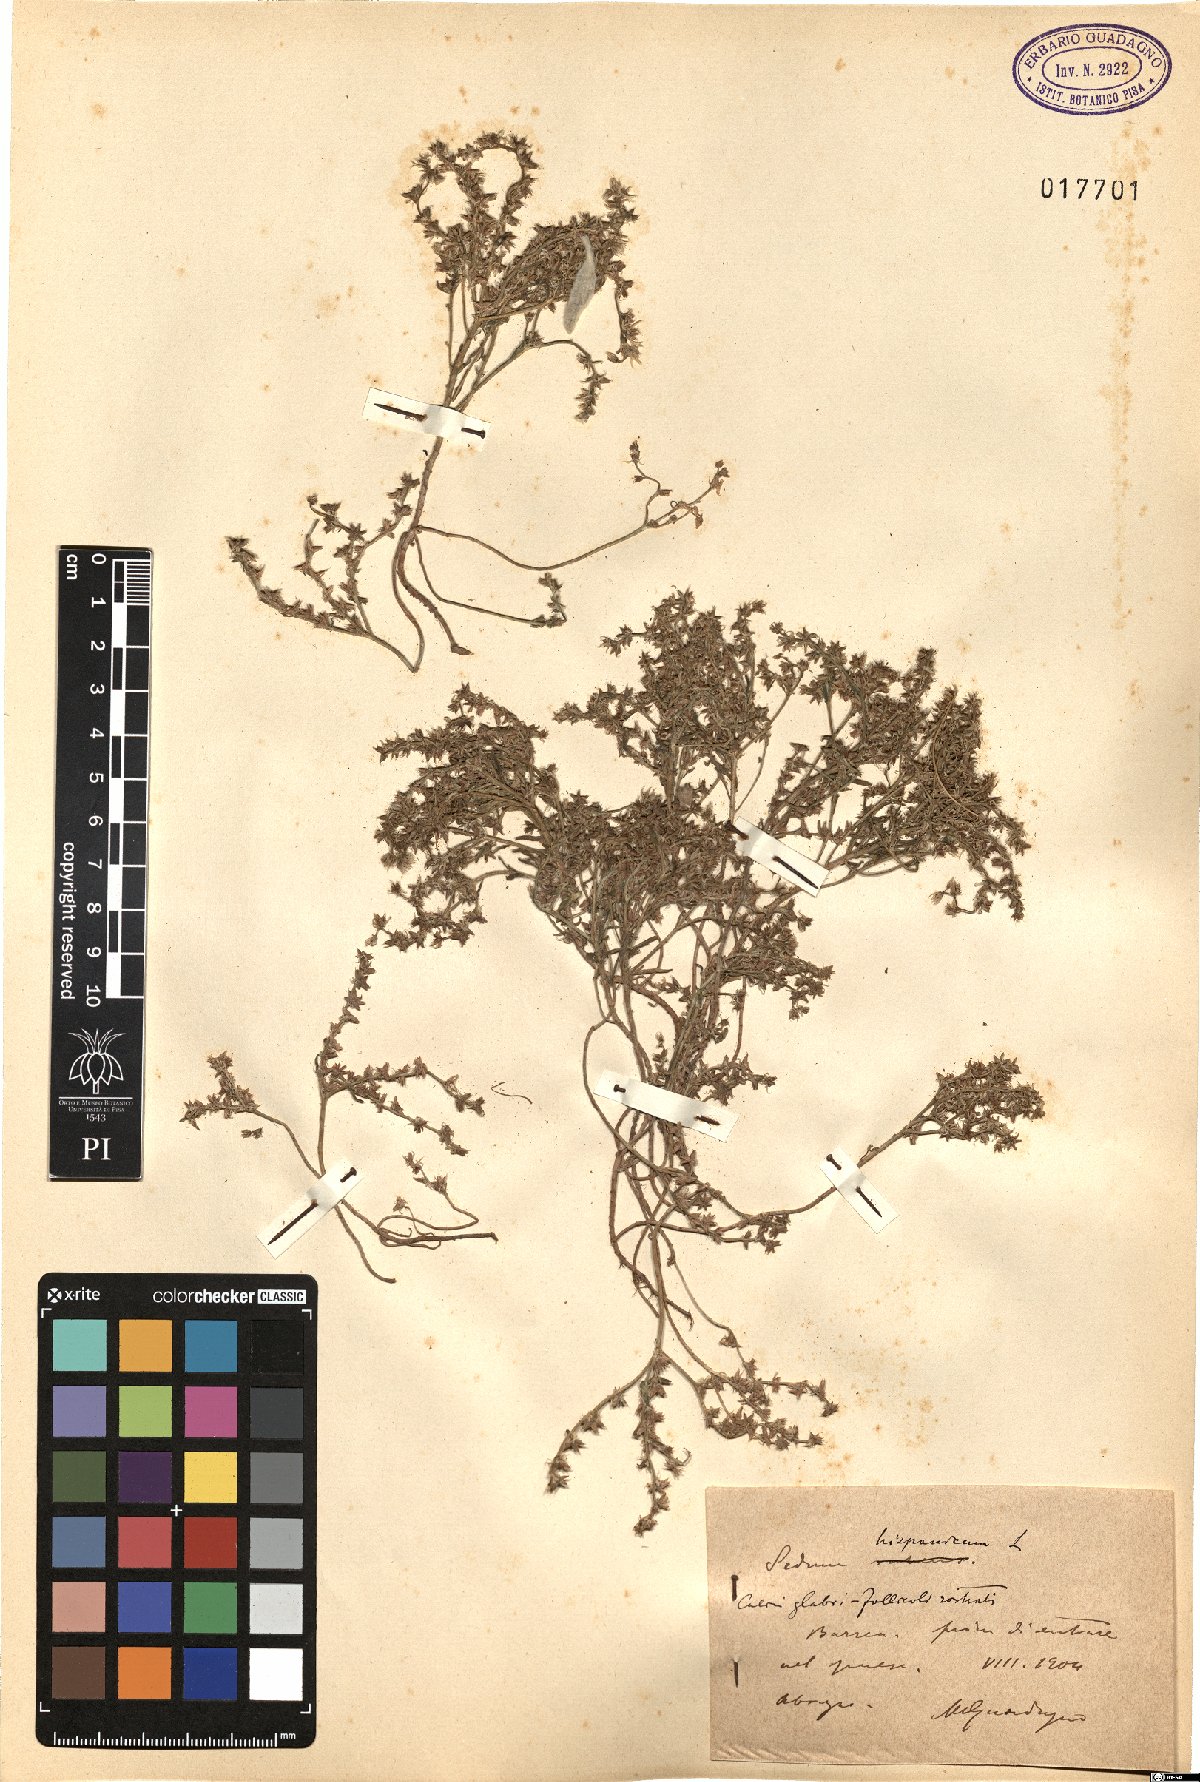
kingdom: Plantae
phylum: Tracheophyta
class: Magnoliopsida
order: Saxifragales
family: Crassulaceae
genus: Sedum
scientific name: Sedum hispanicum
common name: Spanish stonecrop
